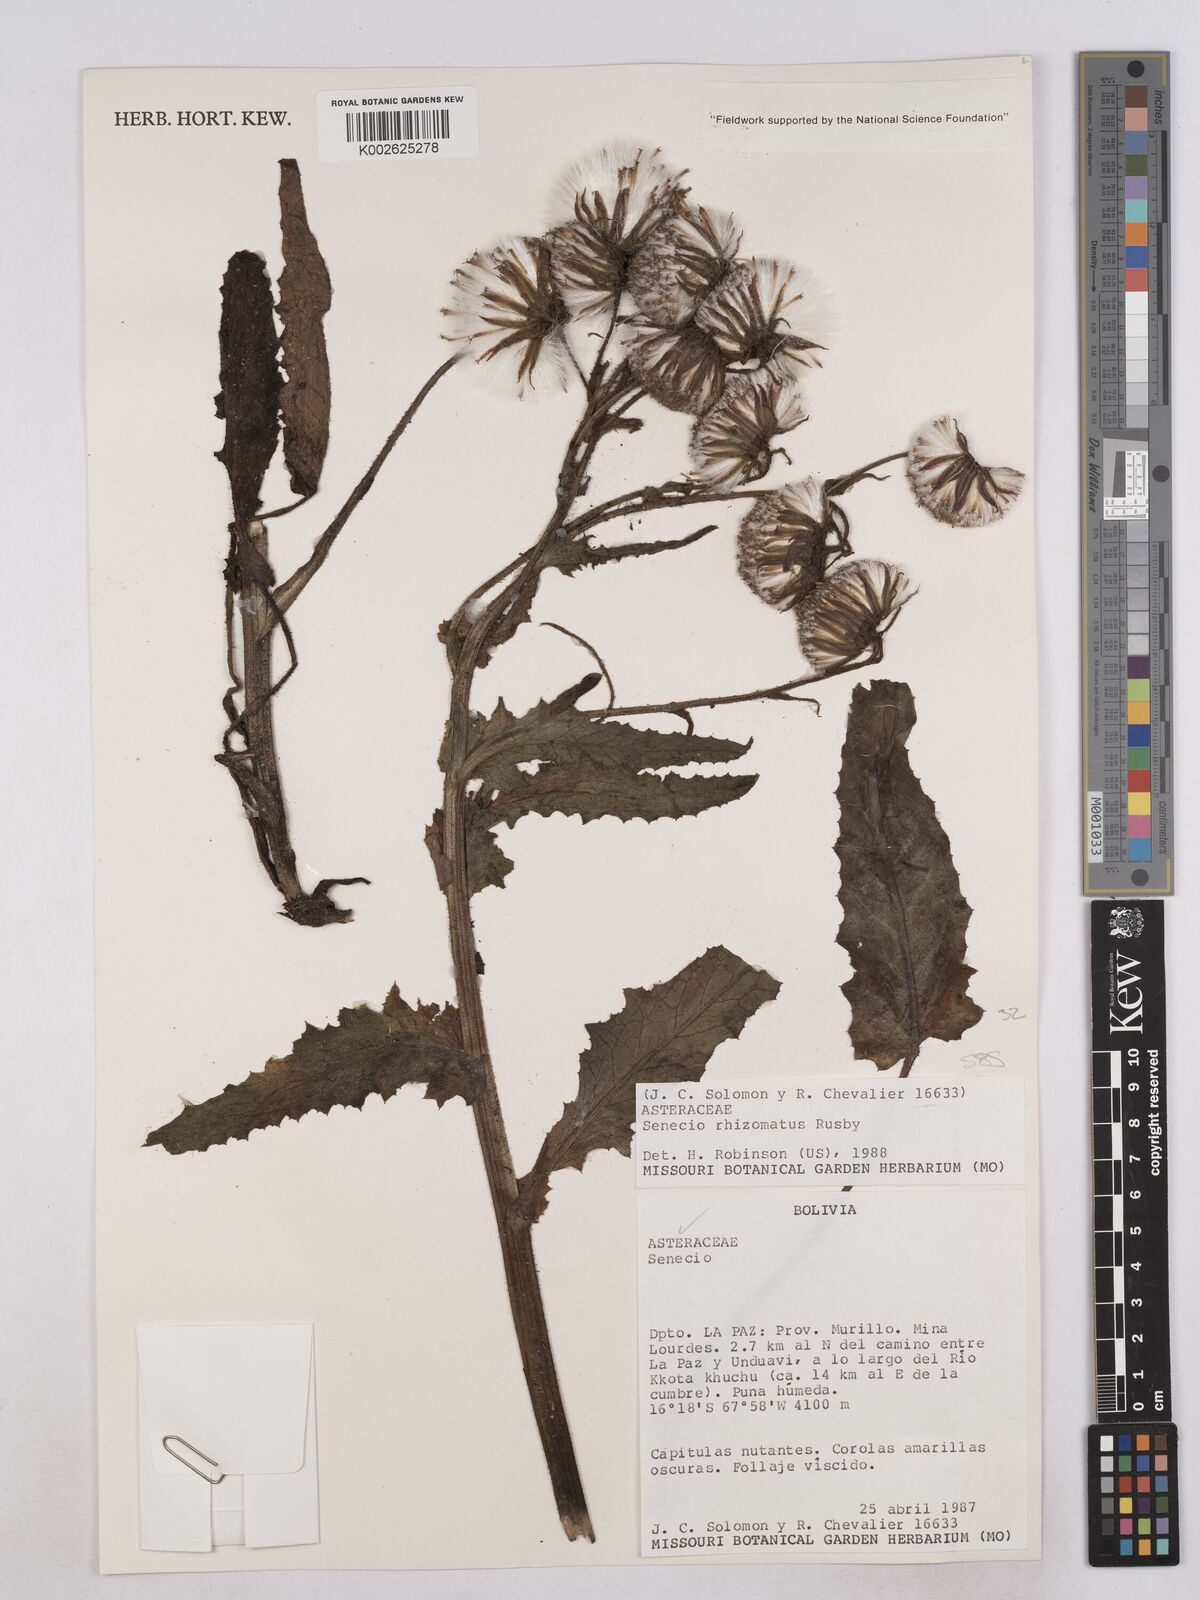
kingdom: Plantae
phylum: Tracheophyta
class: Magnoliopsida
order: Asterales
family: Asteraceae
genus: Senecio
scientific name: Senecio rhizomatus
